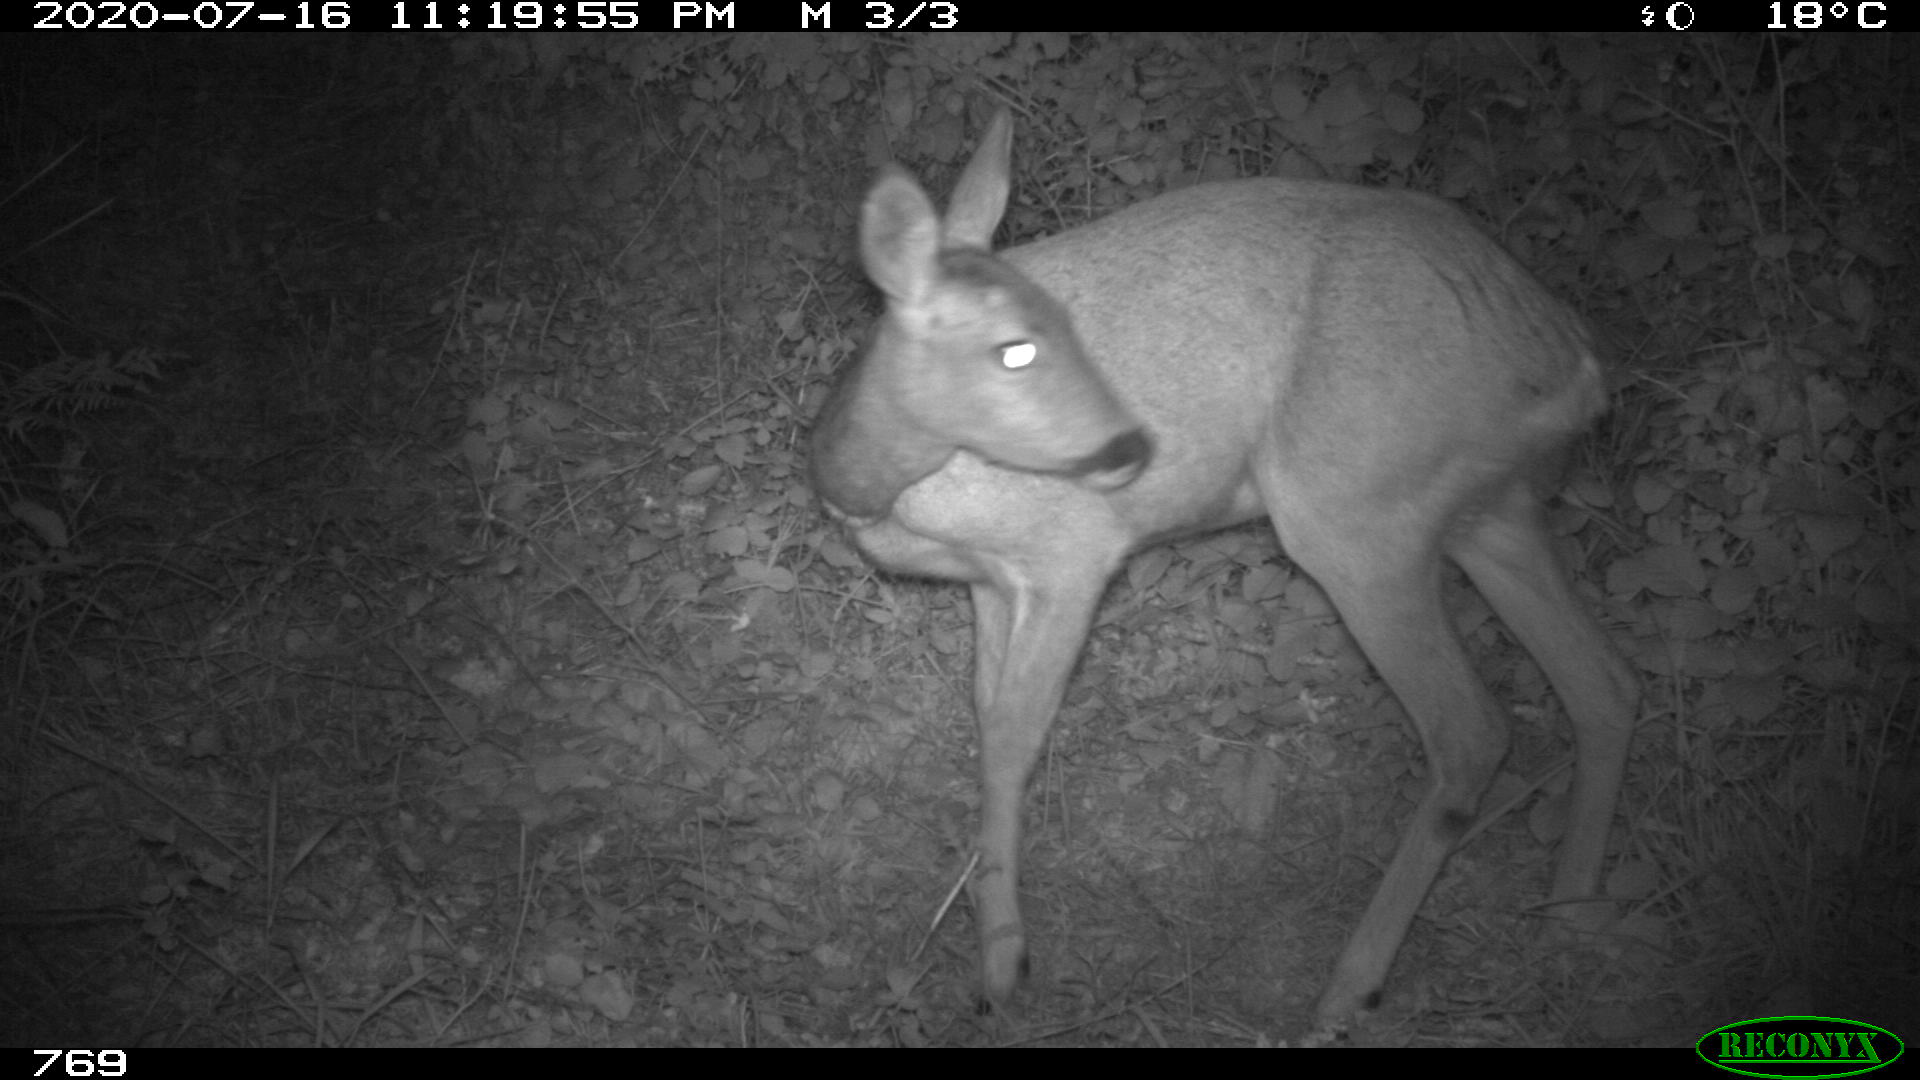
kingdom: Animalia
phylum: Chordata
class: Mammalia
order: Artiodactyla
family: Cervidae
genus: Capreolus
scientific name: Capreolus capreolus
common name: Western roe deer
